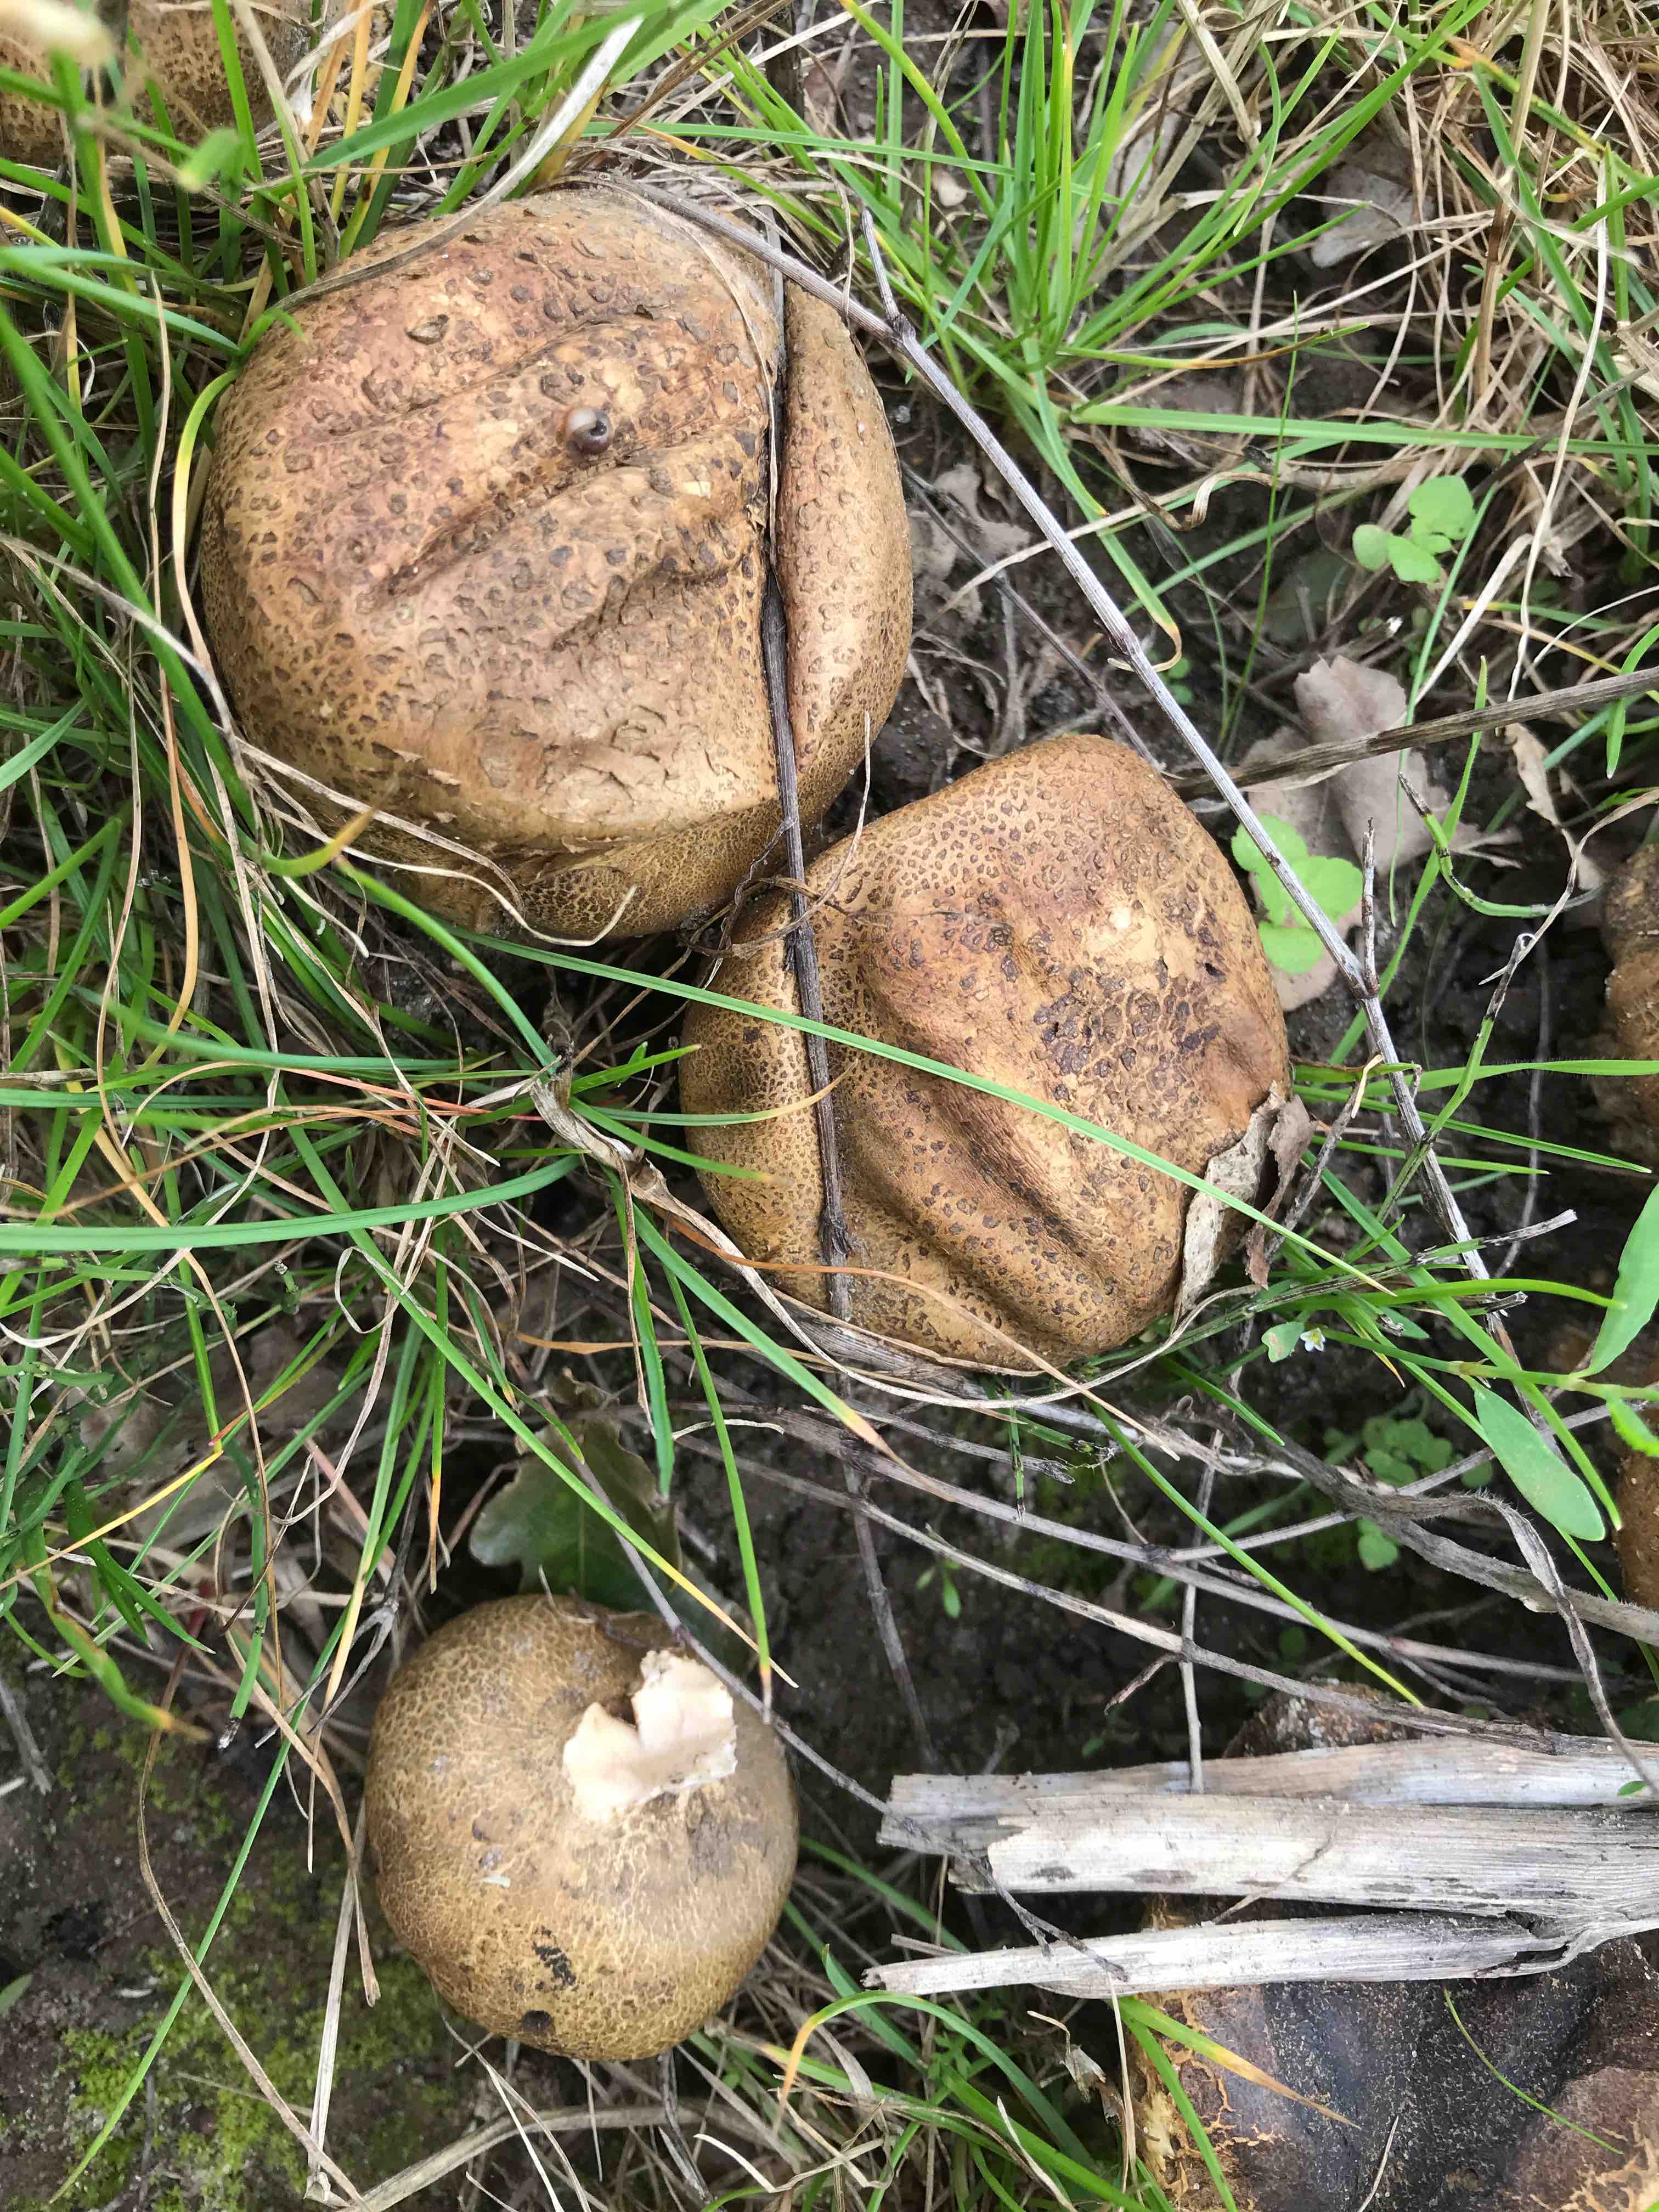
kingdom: Fungi
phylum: Basidiomycota
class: Agaricomycetes
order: Boletales
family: Sclerodermataceae
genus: Scleroderma
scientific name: Scleroderma
